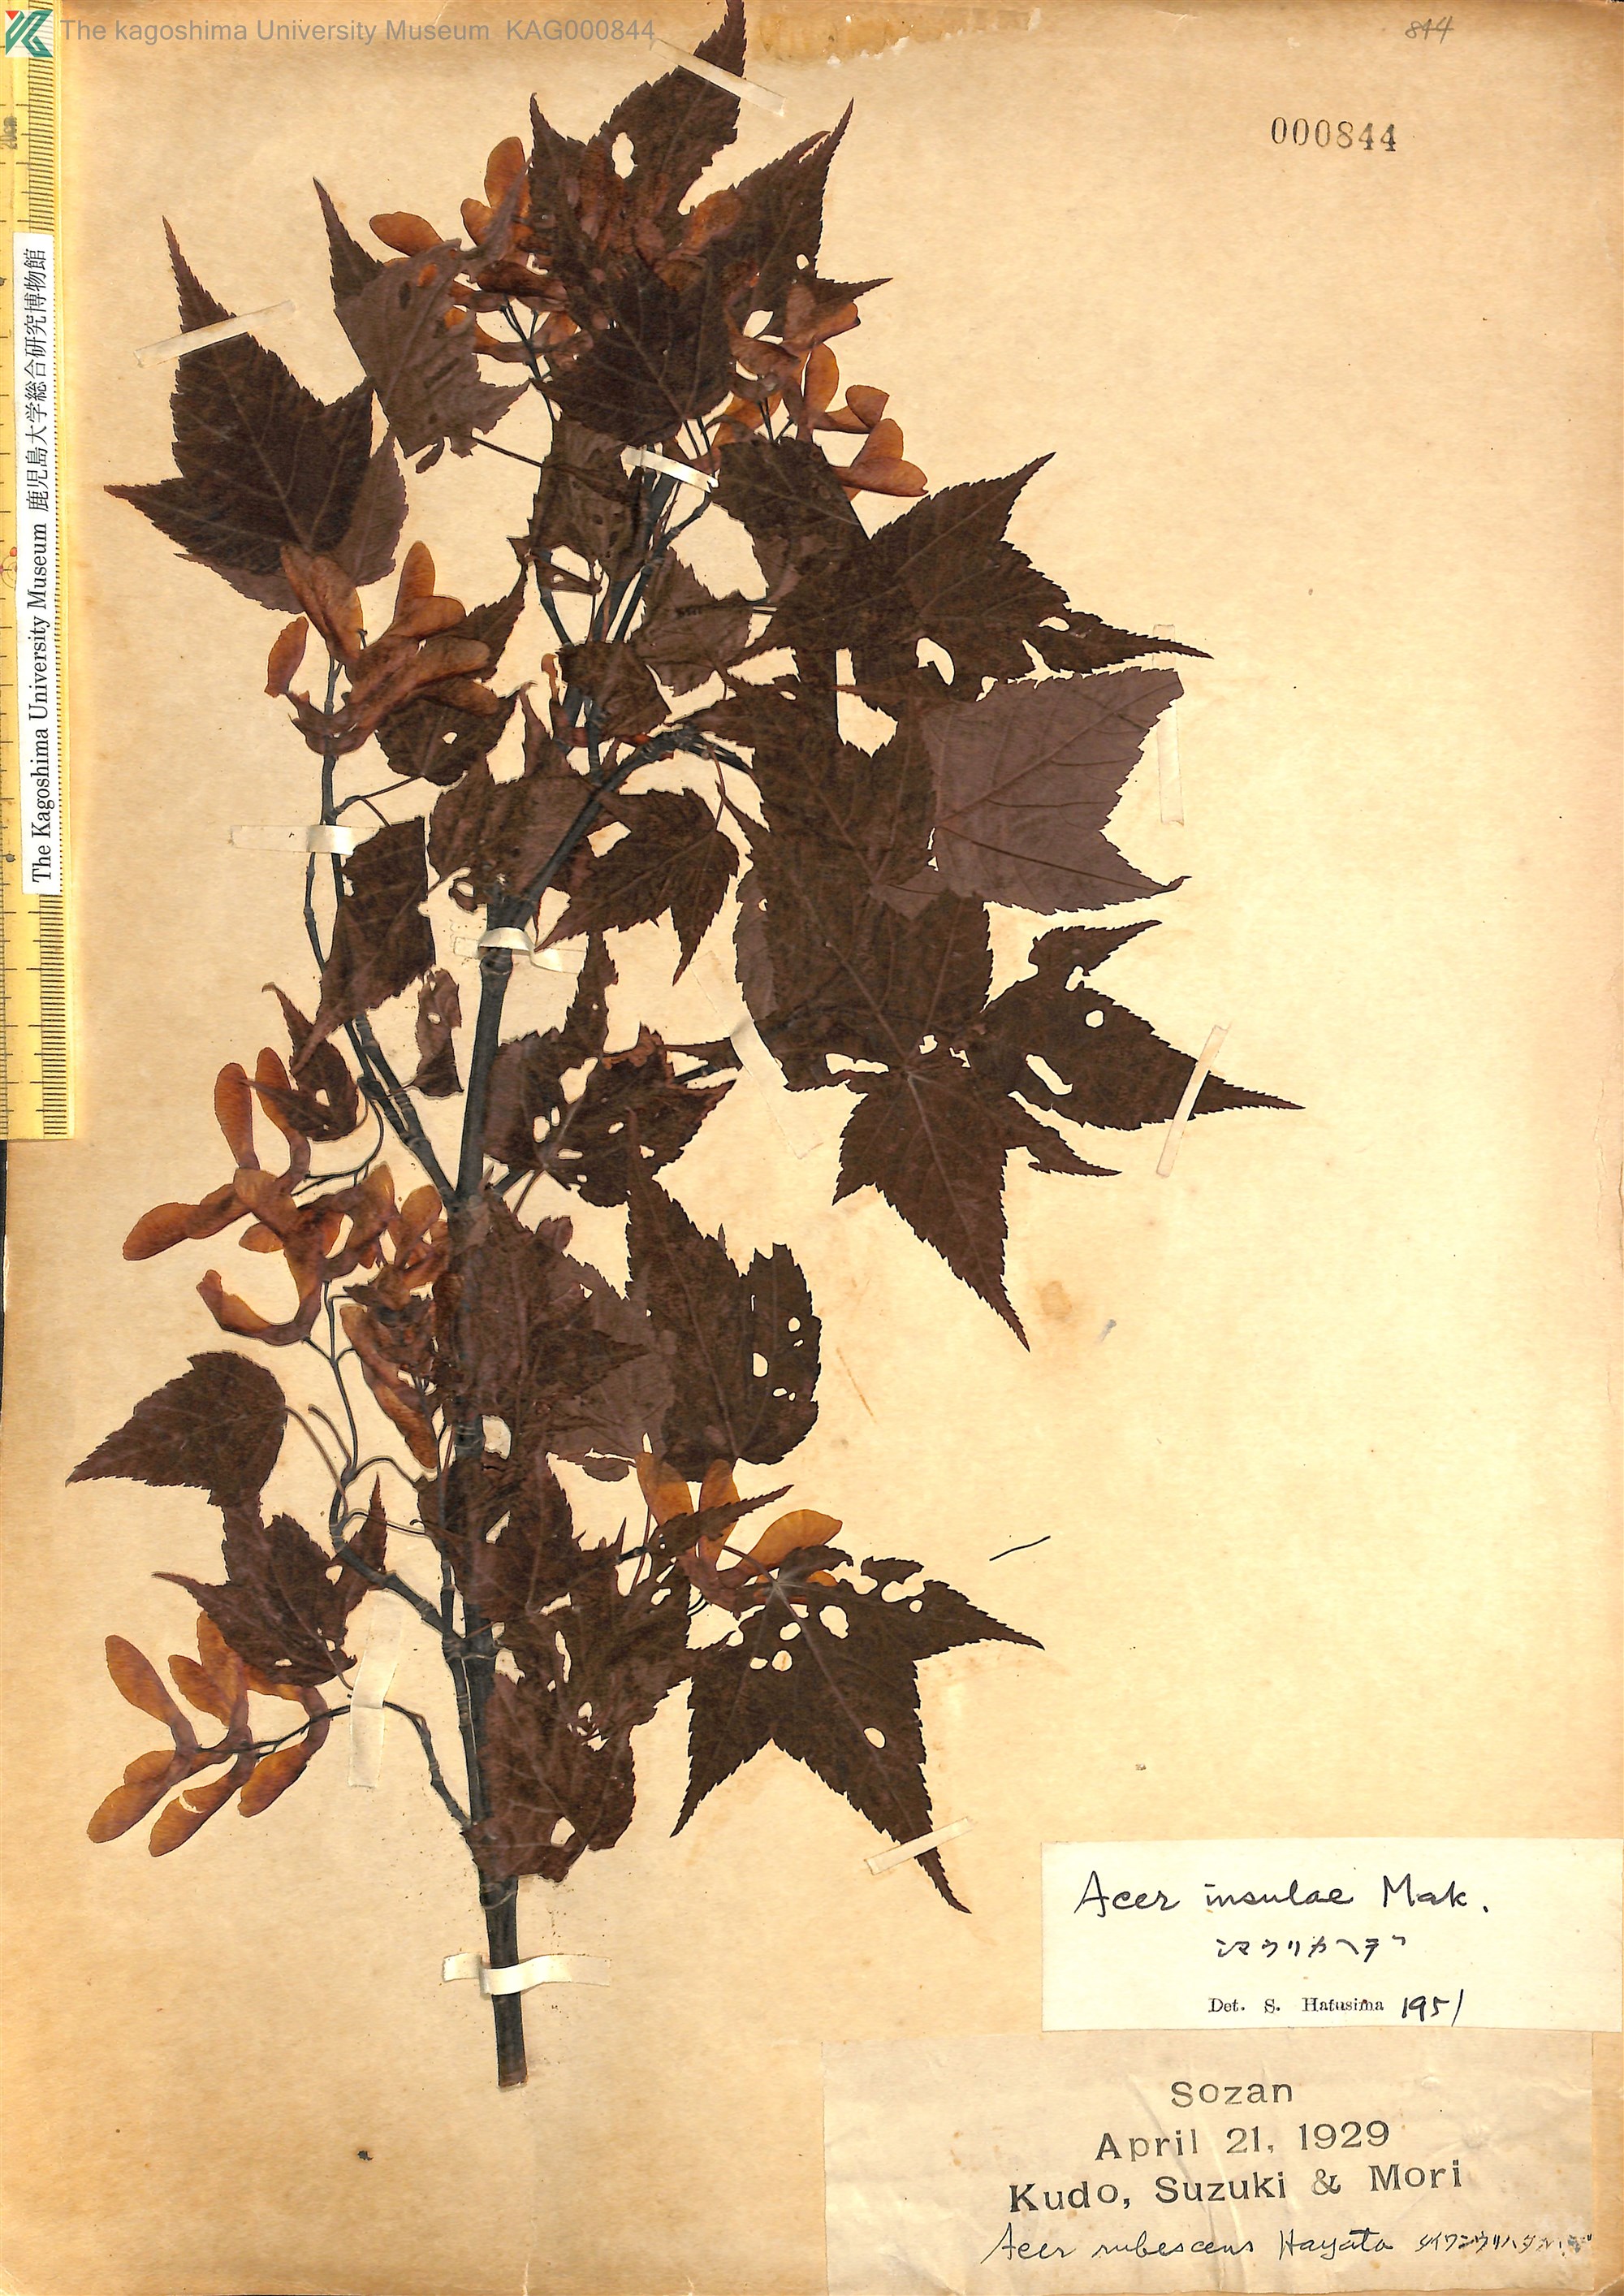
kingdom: Plantae
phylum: Tracheophyta
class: Magnoliopsida
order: Sapindales
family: Sapindaceae
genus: Acer
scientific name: Acer caudatifolium
